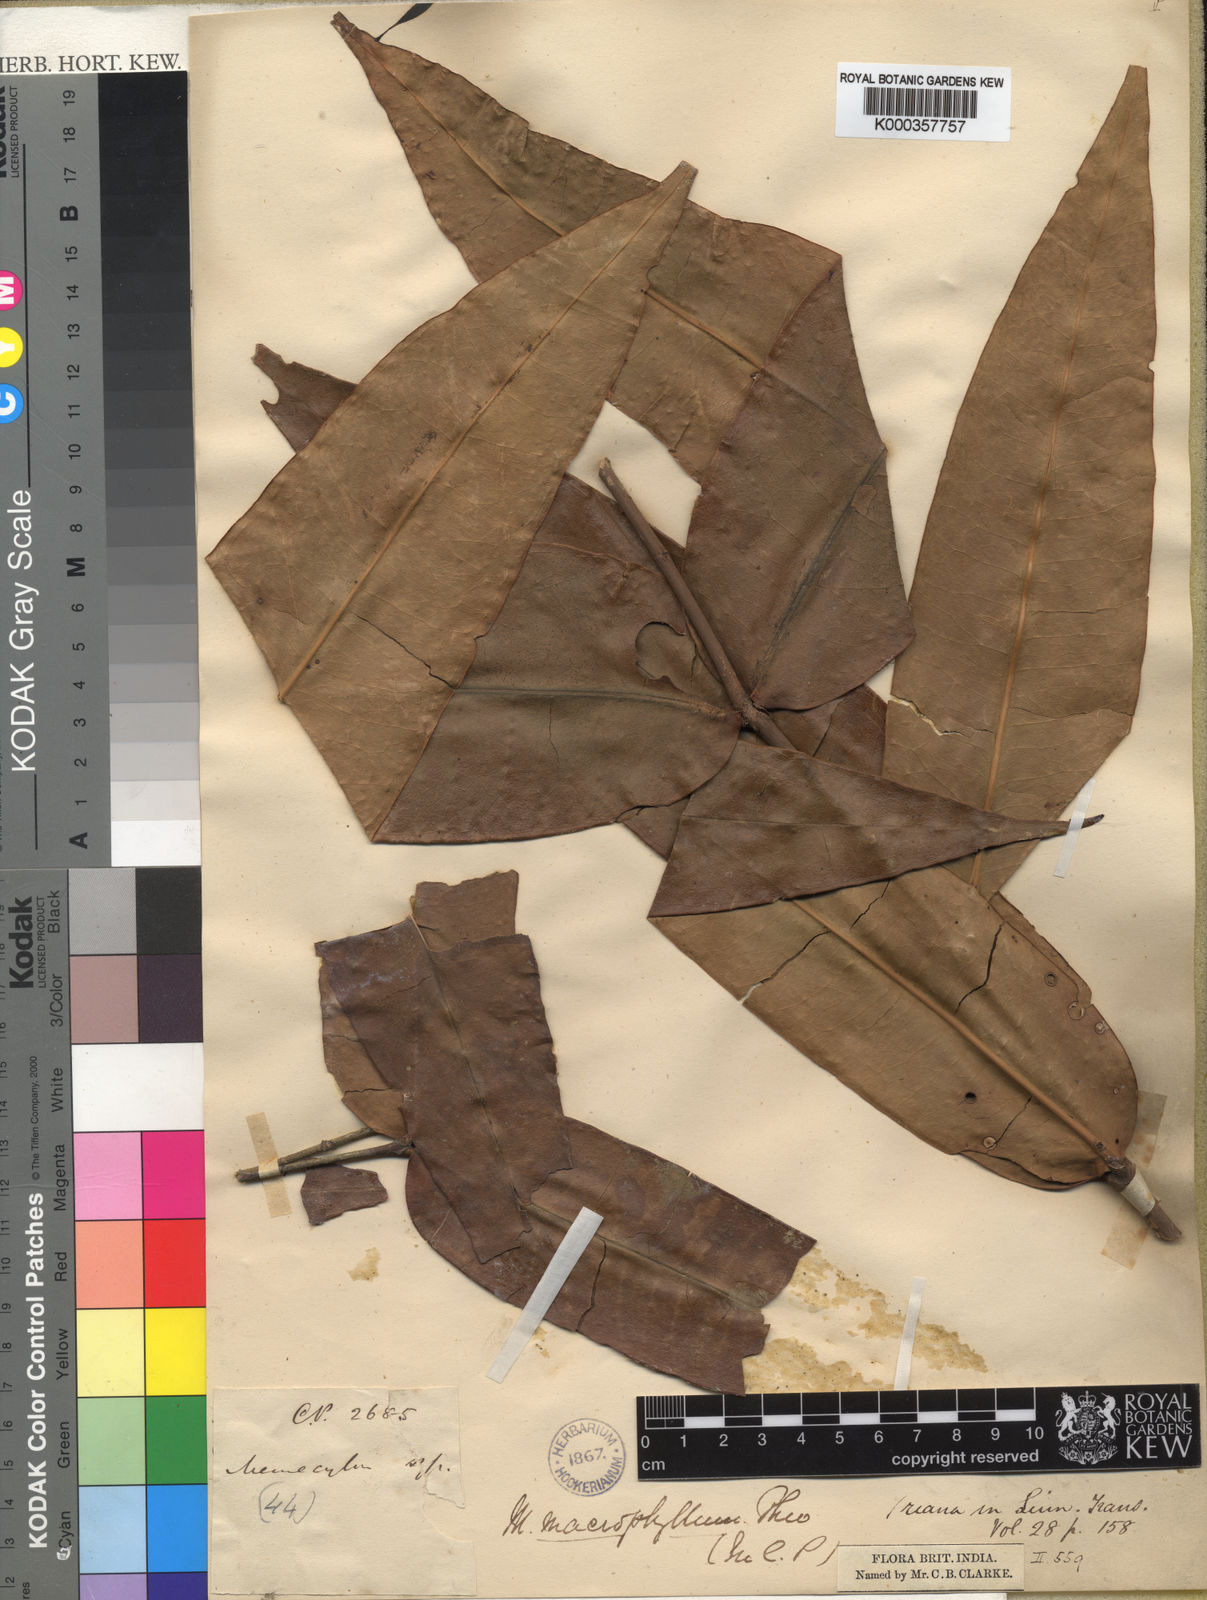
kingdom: Plantae
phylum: Tracheophyta
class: Magnoliopsida
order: Myrtales
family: Melastomataceae
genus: Memecylon
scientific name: Memecylon macrophyllum
